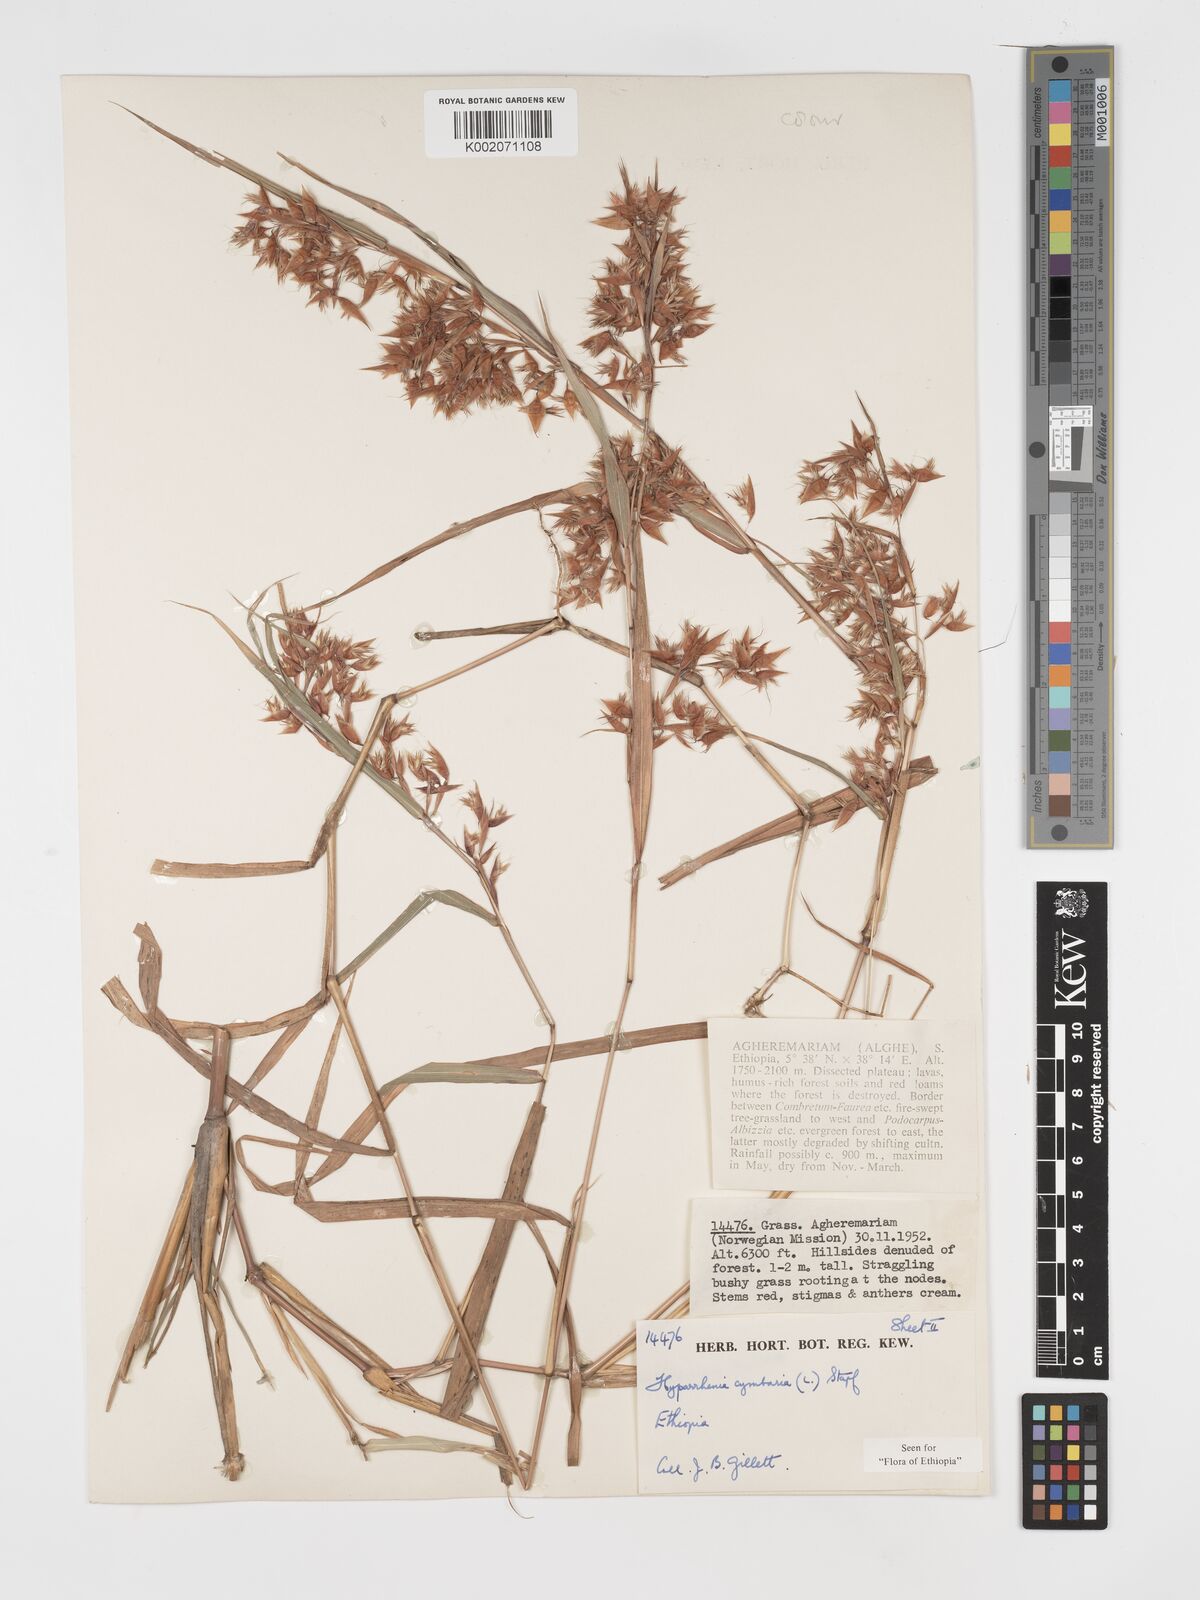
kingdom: Plantae
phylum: Tracheophyta
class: Liliopsida
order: Poales
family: Poaceae
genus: Hyparrhenia
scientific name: Hyparrhenia cymbaria
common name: Boat thatching grass
